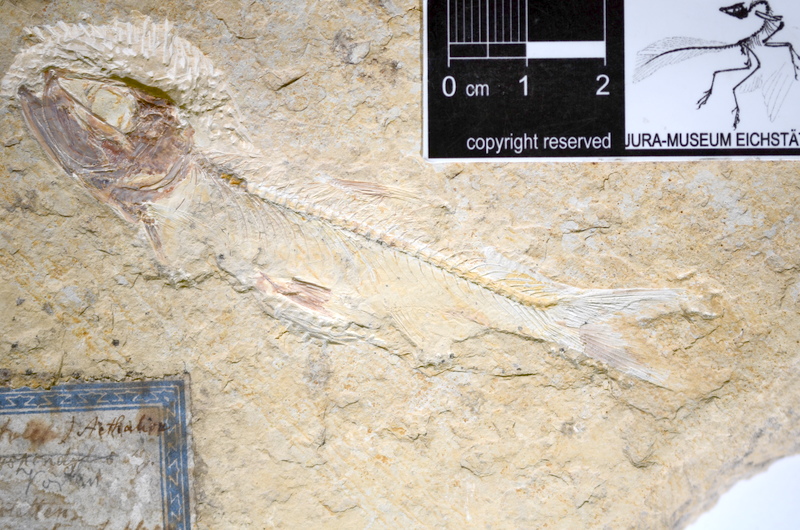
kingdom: Animalia
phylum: Chordata
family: Ascalaboidae
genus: Ascalabos
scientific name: Ascalabos voithii
